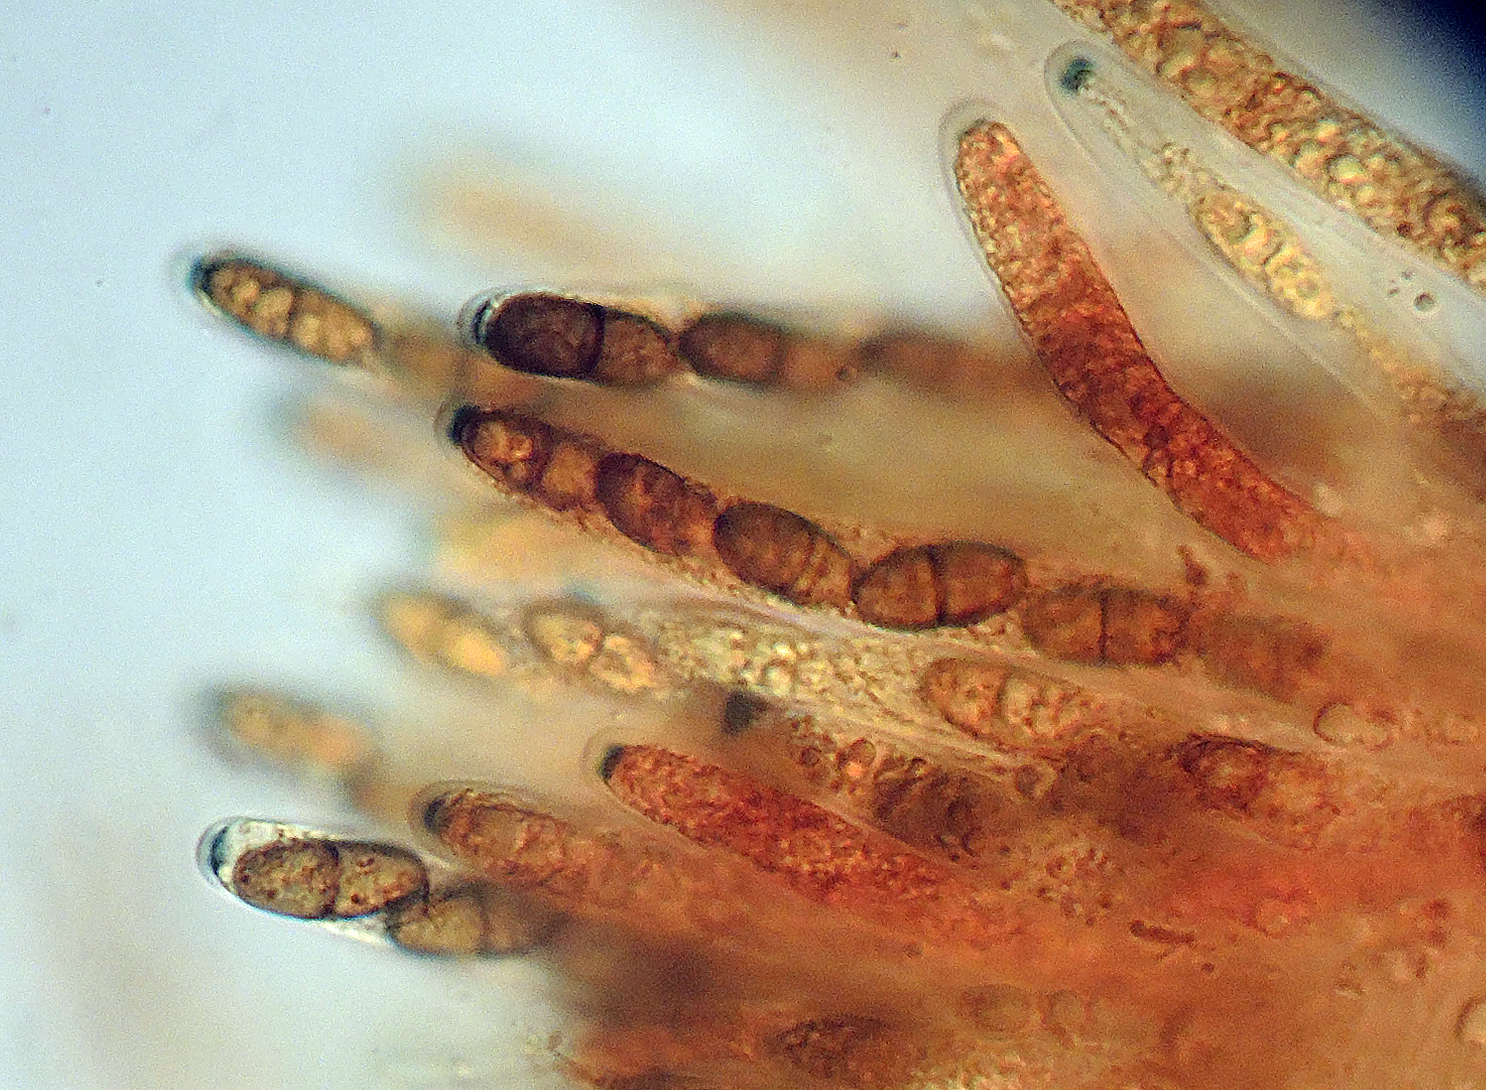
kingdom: Fungi
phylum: Ascomycota
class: Sordariomycetes
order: Amphisphaeriales
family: Amphisphaeriaceae
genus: Amphisphaeria
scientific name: Amphisphaeria multipunctata
